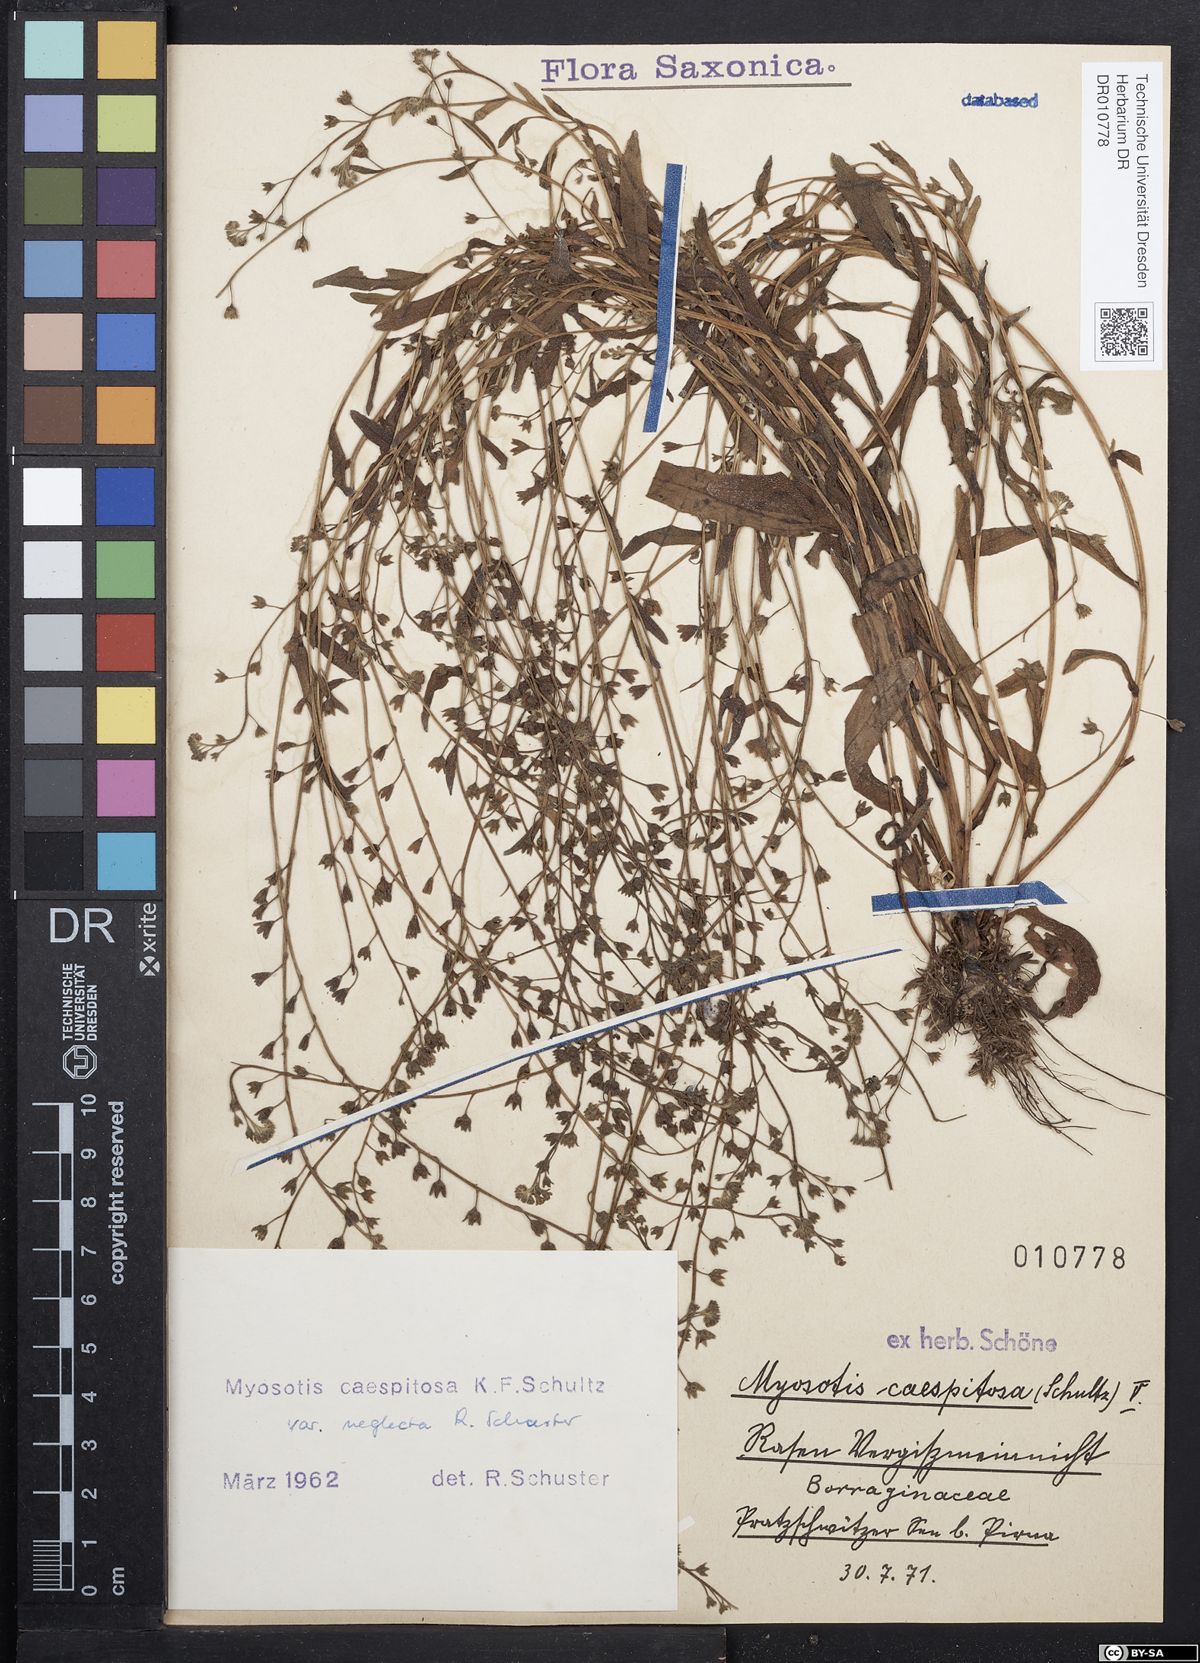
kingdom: Plantae
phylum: Tracheophyta
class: Magnoliopsida
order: Boraginales
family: Boraginaceae
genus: Myosotis
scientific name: Myosotis laxa
